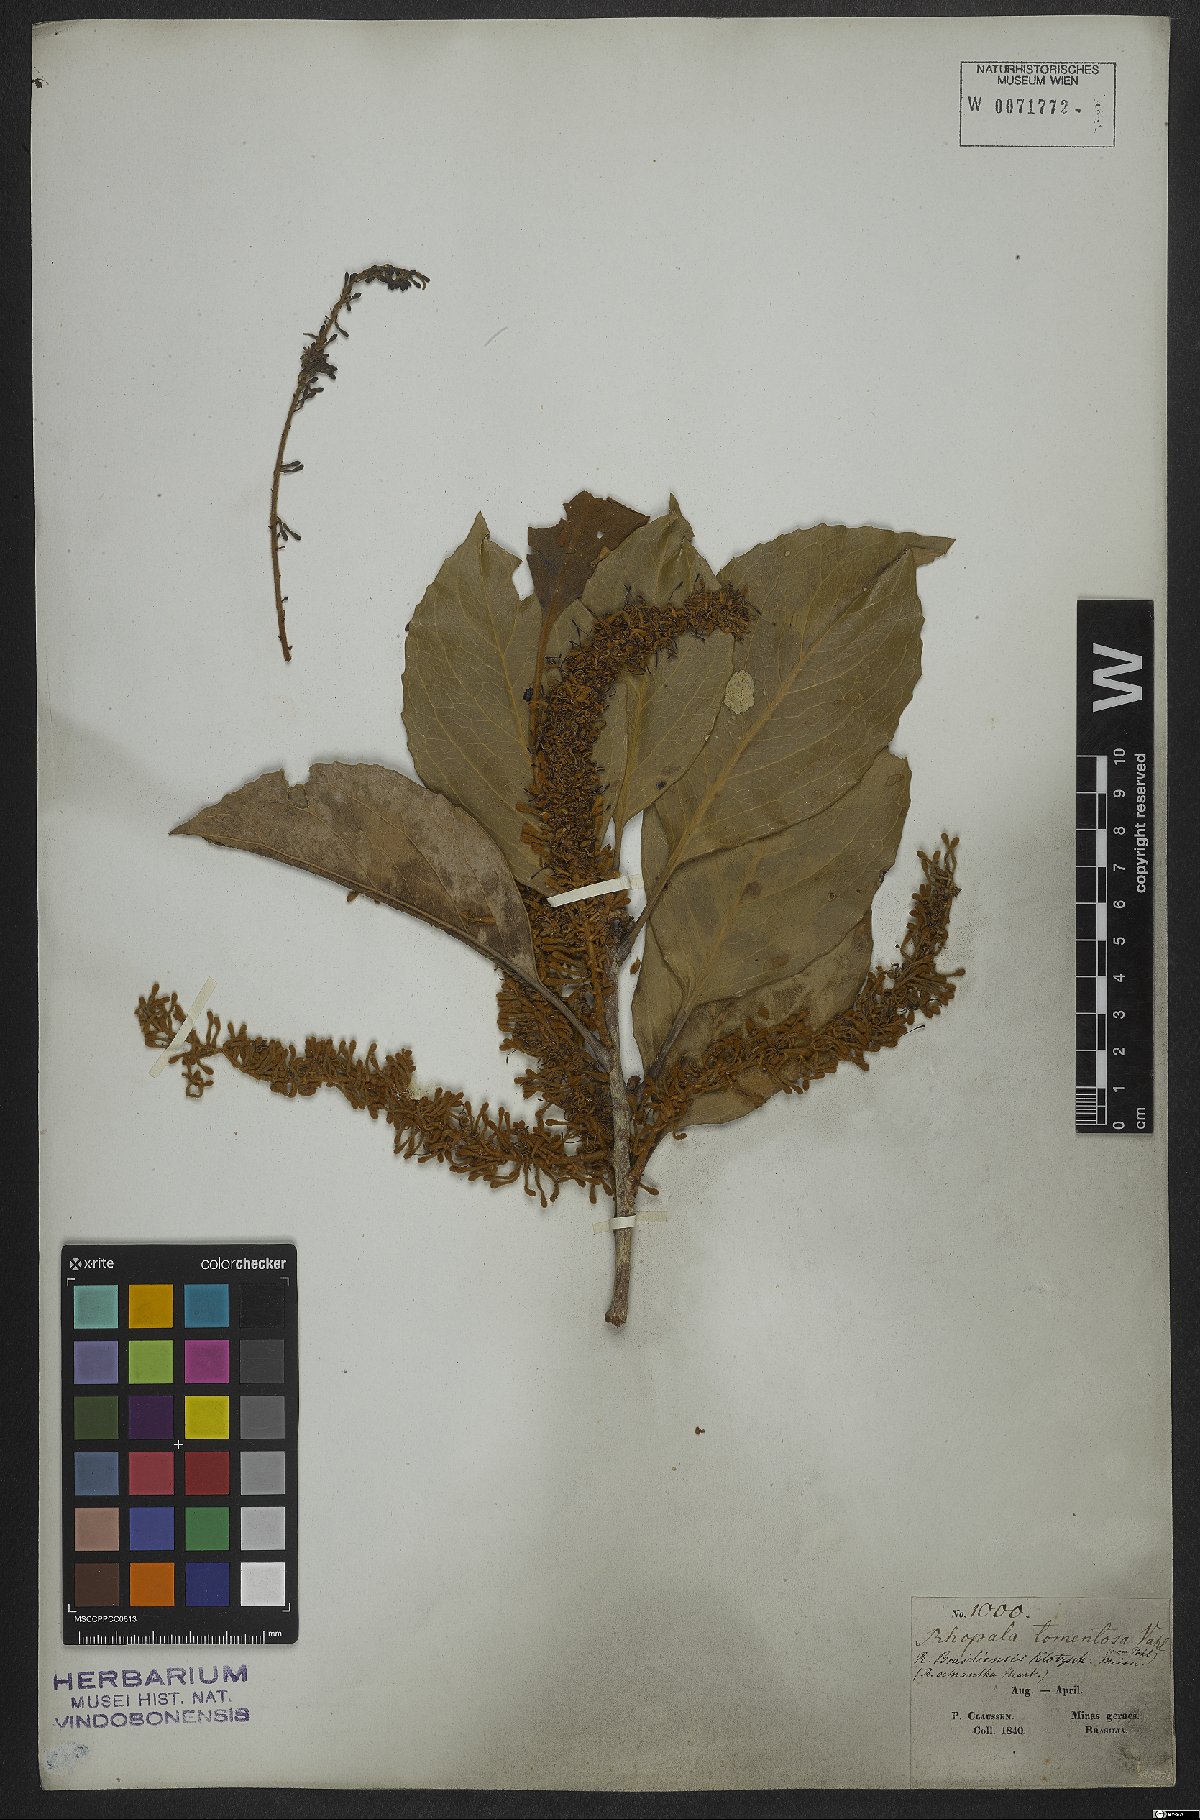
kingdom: Plantae
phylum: Tracheophyta
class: Magnoliopsida
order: Proteales
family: Proteaceae
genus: Roupala
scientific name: Roupala montana
